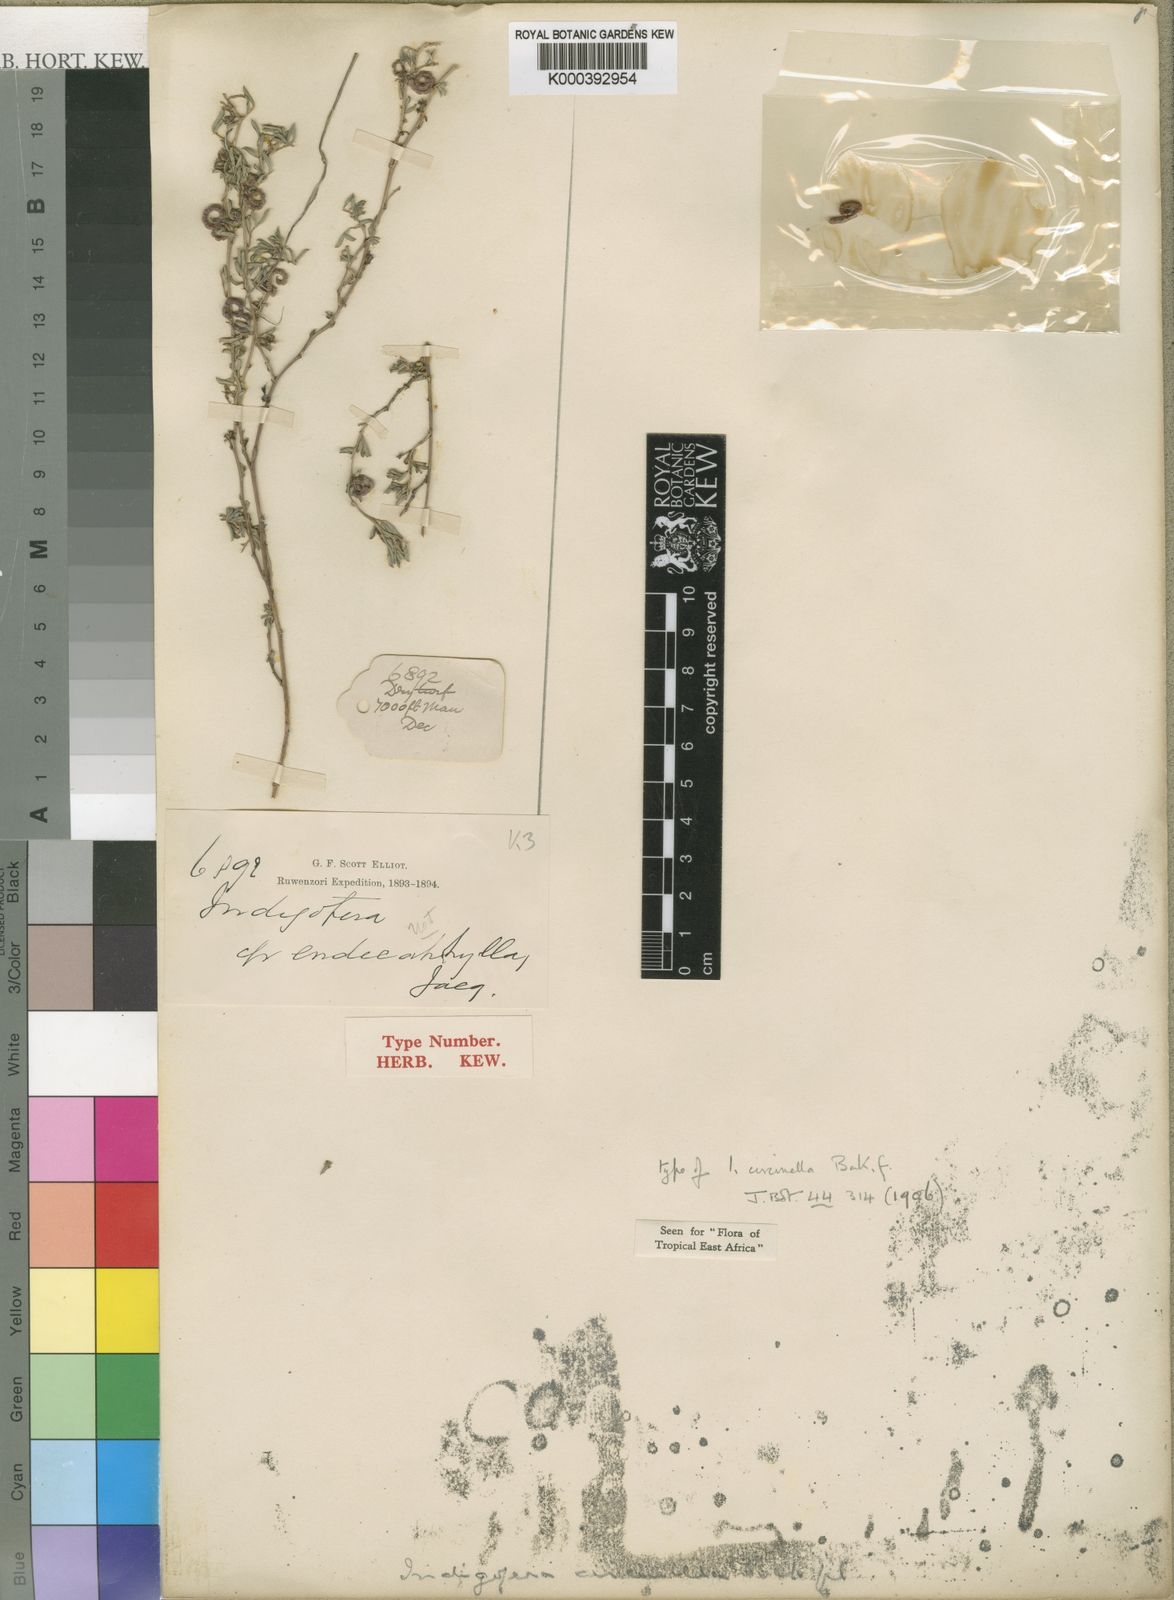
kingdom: Plantae
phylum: Tracheophyta
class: Magnoliopsida
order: Fabales
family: Fabaceae
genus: Indigofera
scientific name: Indigofera circinella
